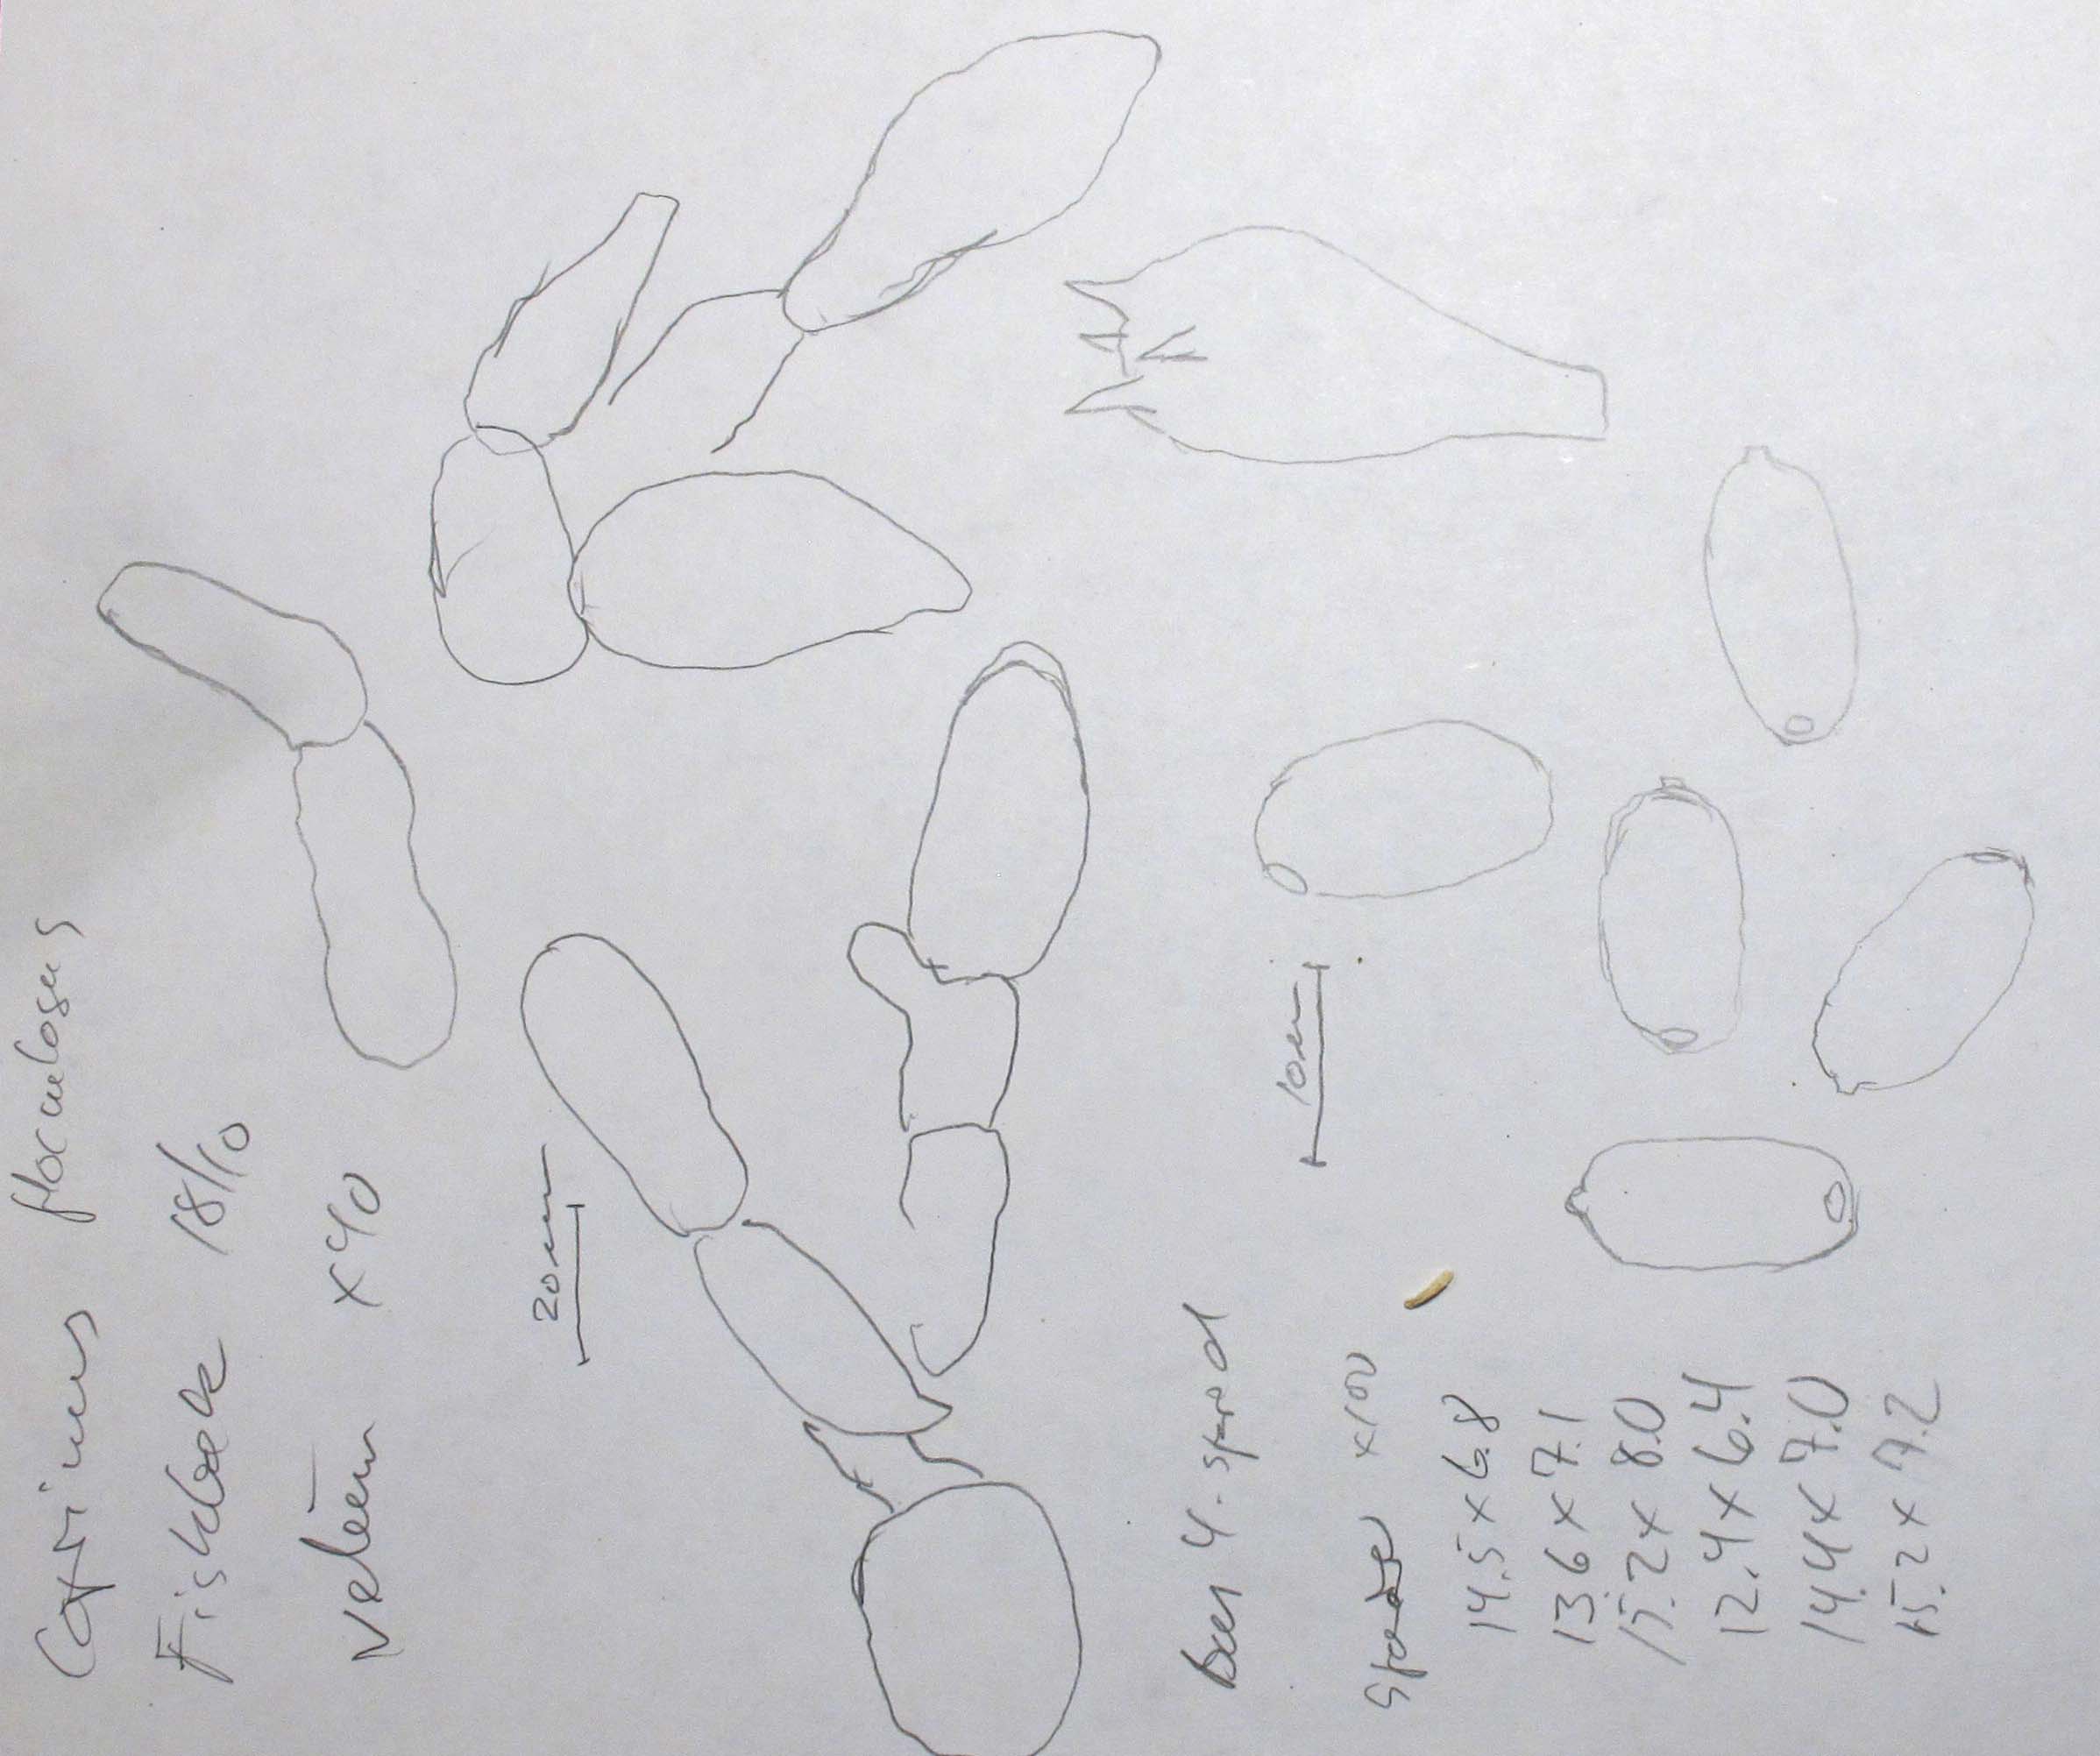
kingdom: Fungi
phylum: Basidiomycota
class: Agaricomycetes
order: Agaricales
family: Psathyrellaceae
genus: Coprinellus
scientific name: Coprinellus flocculosus
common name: fnugget blækhat
